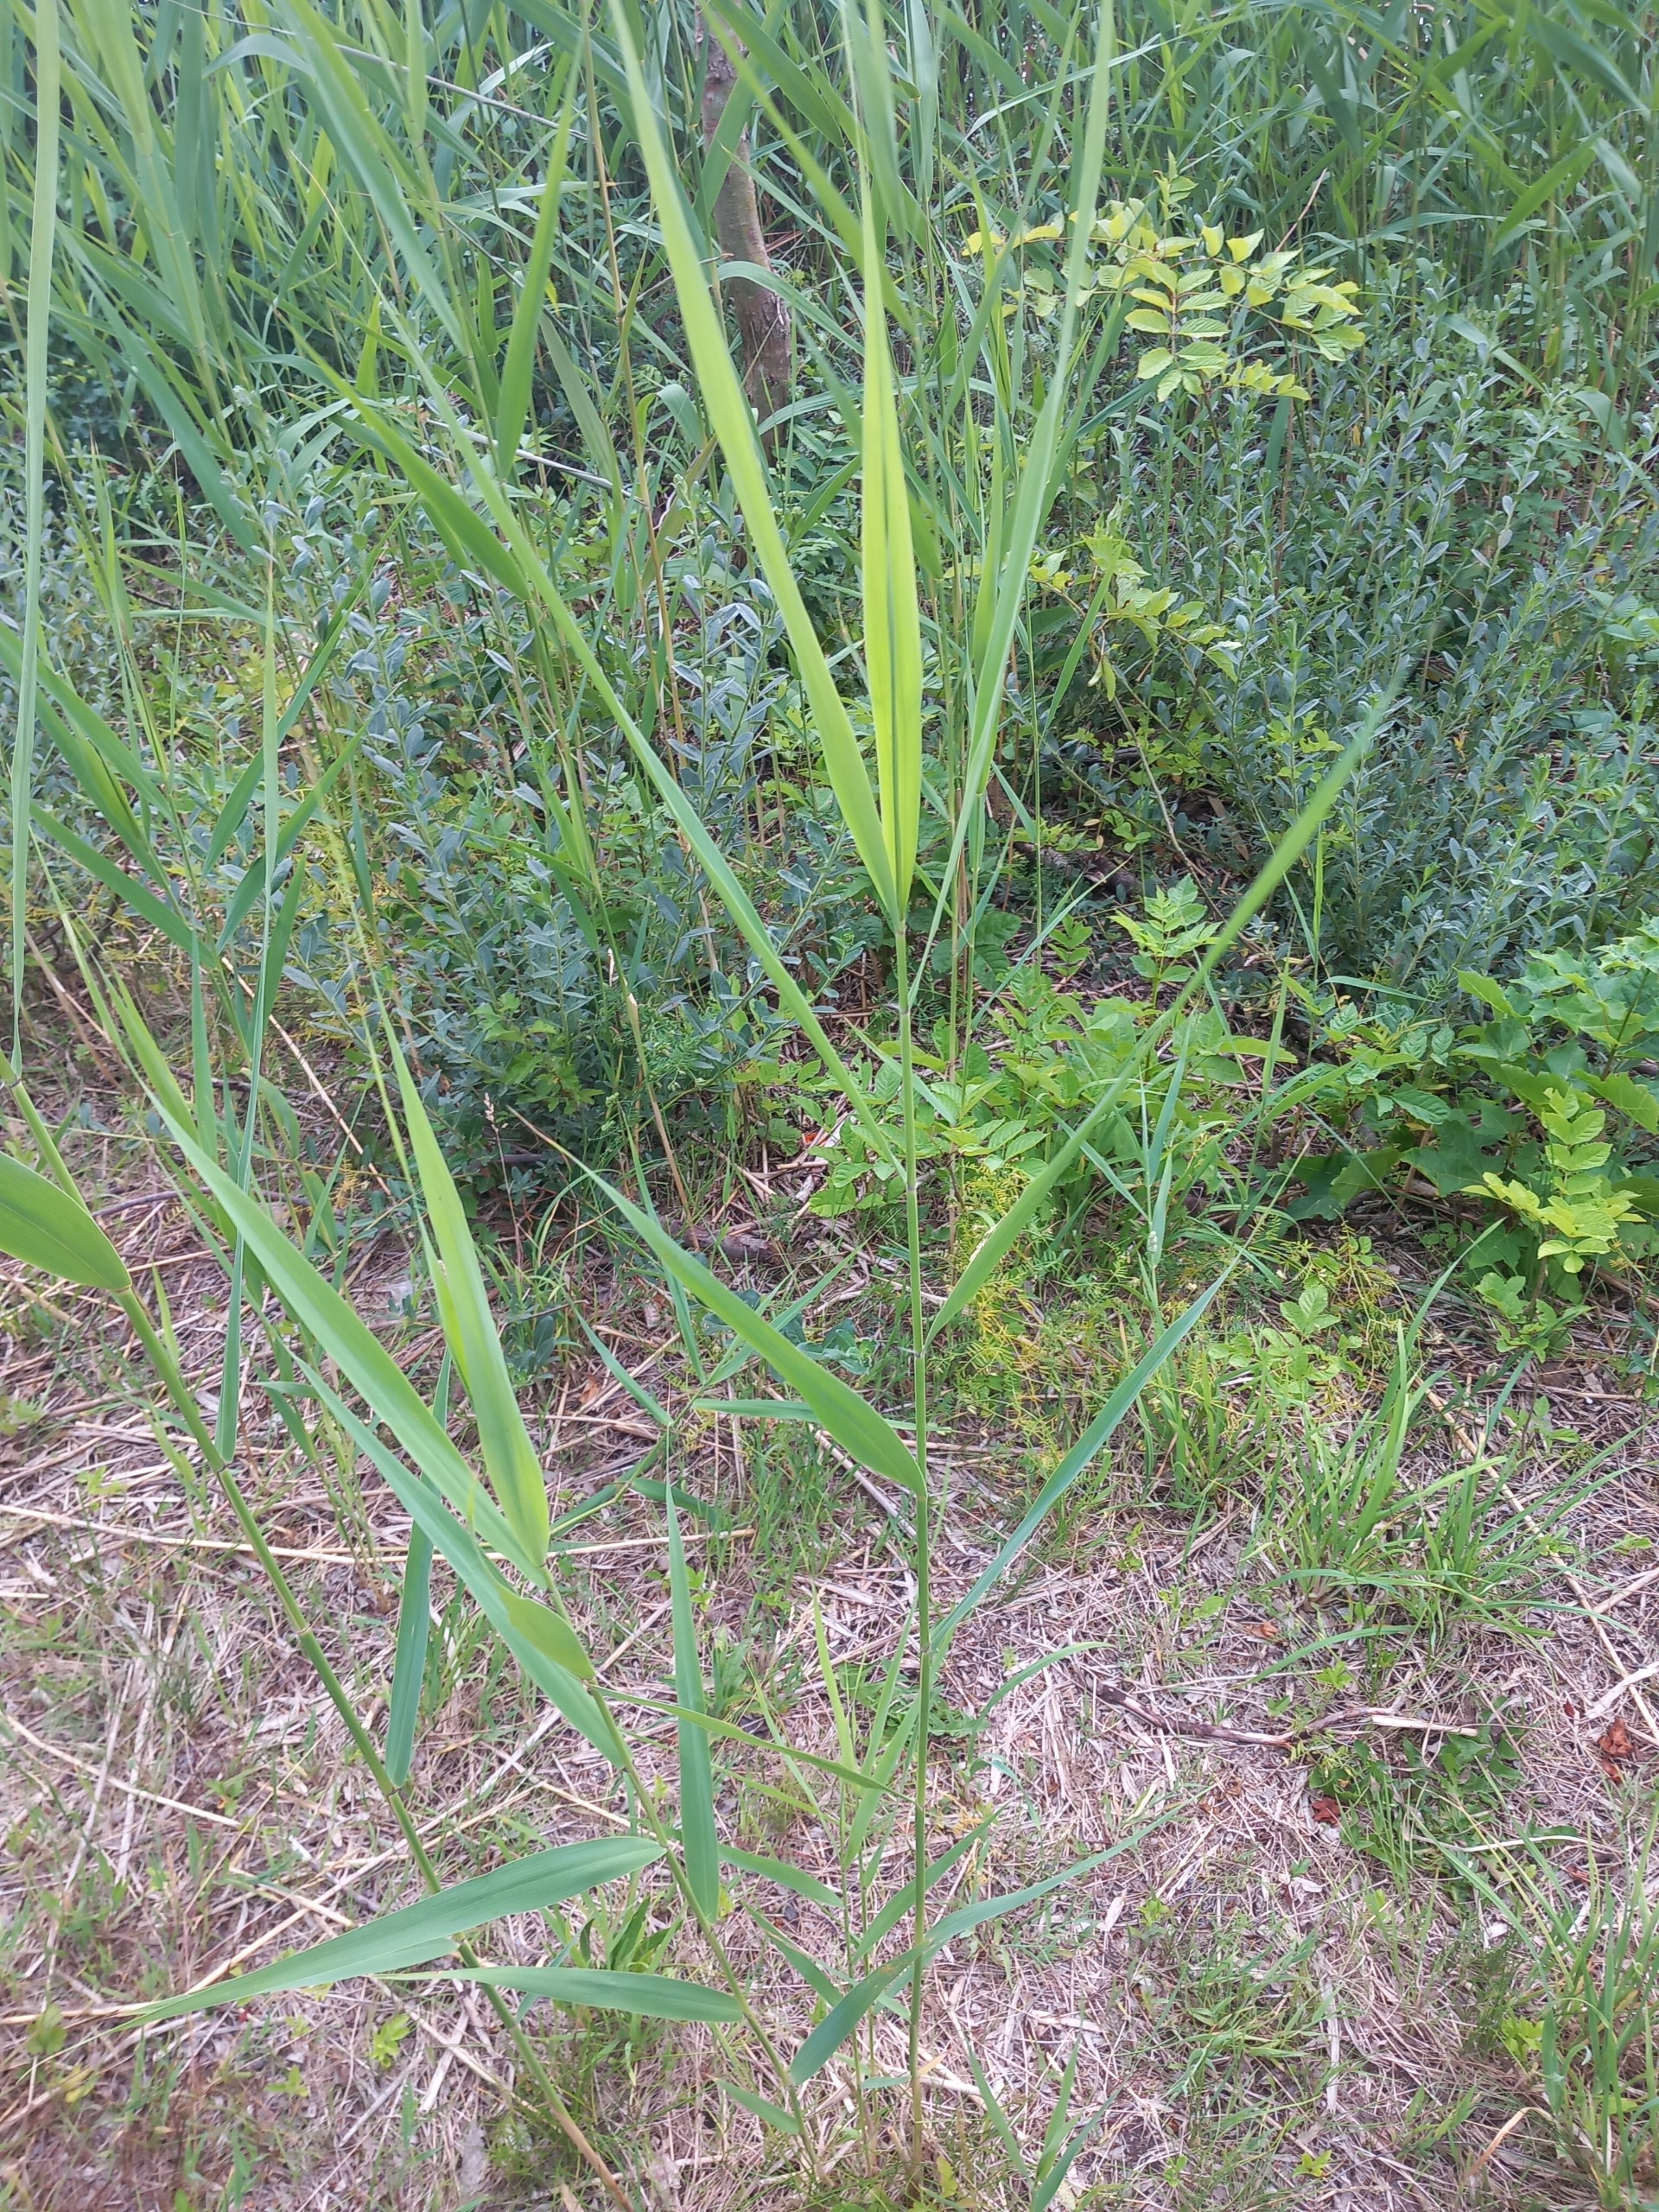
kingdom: Plantae
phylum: Tracheophyta
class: Liliopsida
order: Poales
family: Poaceae
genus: Phragmites
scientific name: Phragmites australis
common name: Tagrør
